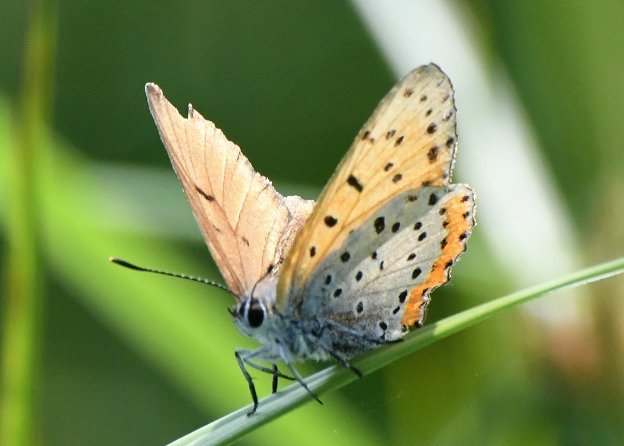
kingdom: Animalia
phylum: Arthropoda
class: Insecta
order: Lepidoptera
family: Sesiidae
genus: Sesia
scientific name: Sesia Lycaena hyllus
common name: Bronze Copper
